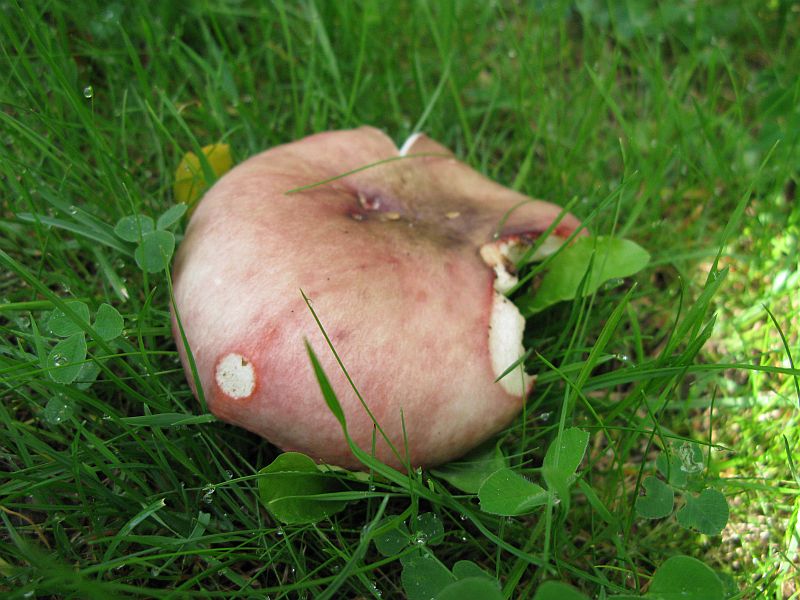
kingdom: Fungi
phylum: Basidiomycota
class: Agaricomycetes
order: Russulales
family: Russulaceae
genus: Russula
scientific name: Russula depallens
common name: falmende skørhat
